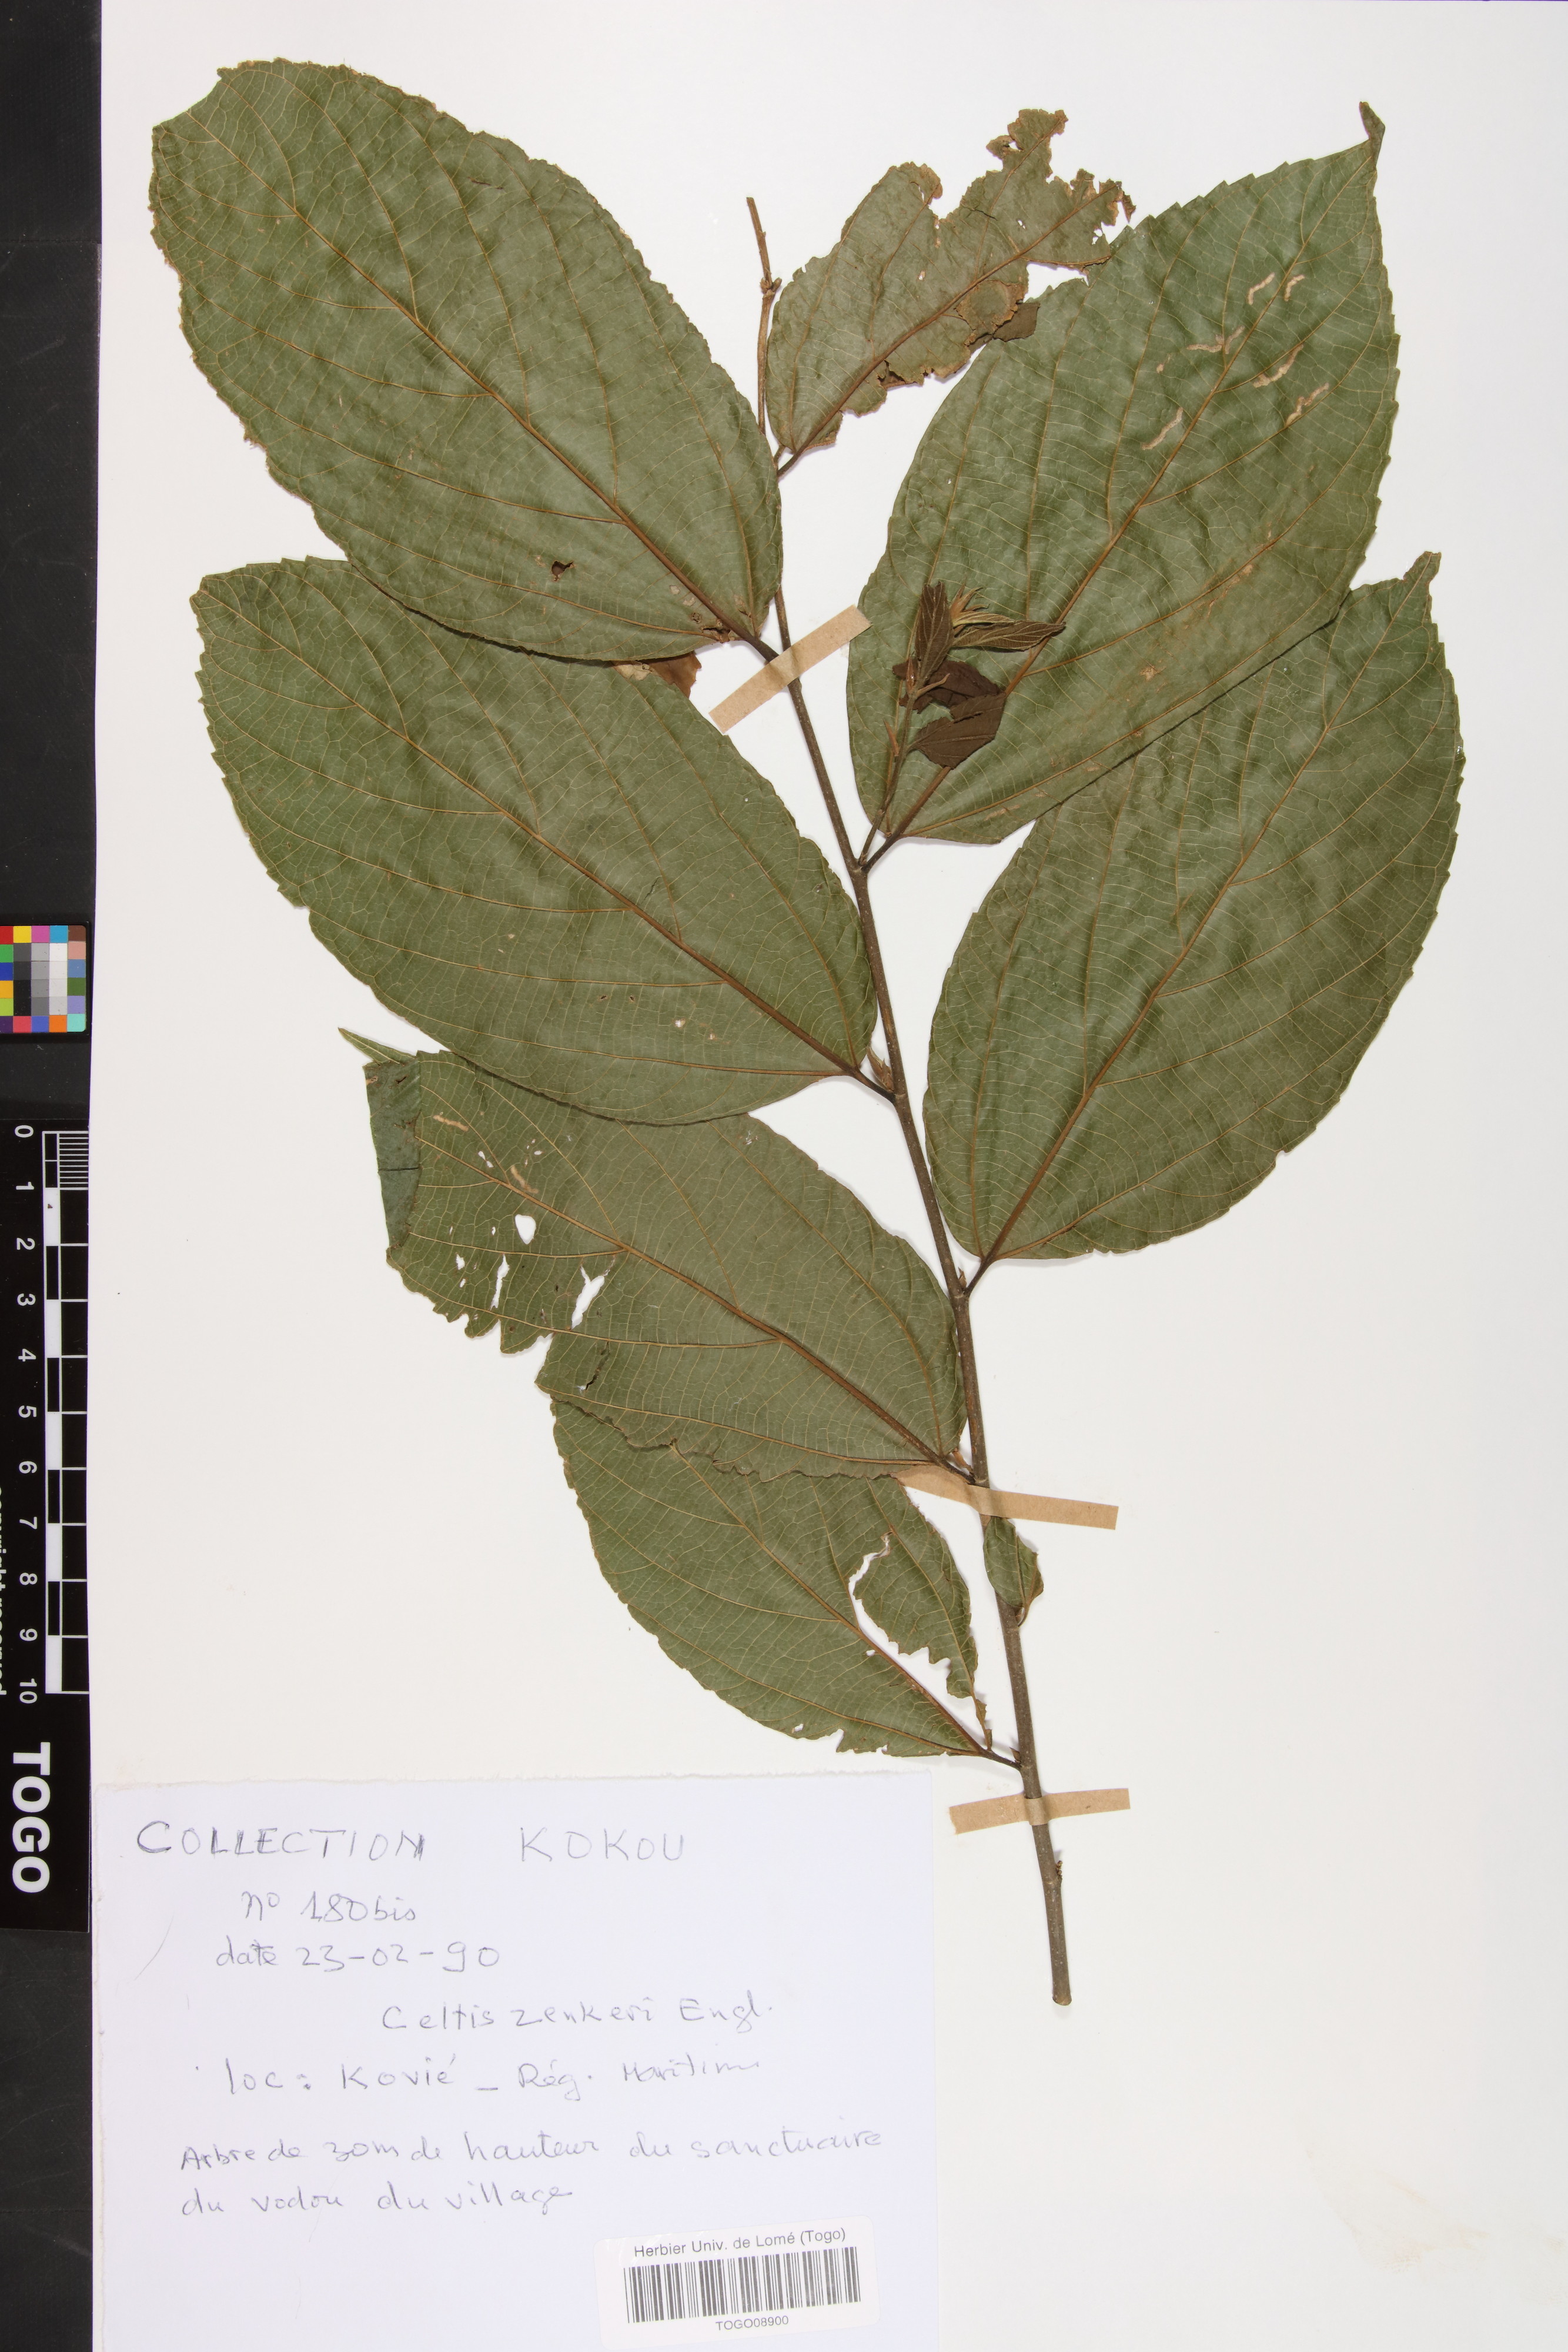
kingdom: Plantae
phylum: Tracheophyta
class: Magnoliopsida
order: Rosales
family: Cannabaceae
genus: Celtis
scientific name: Celtis zenkeri
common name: African celtis
